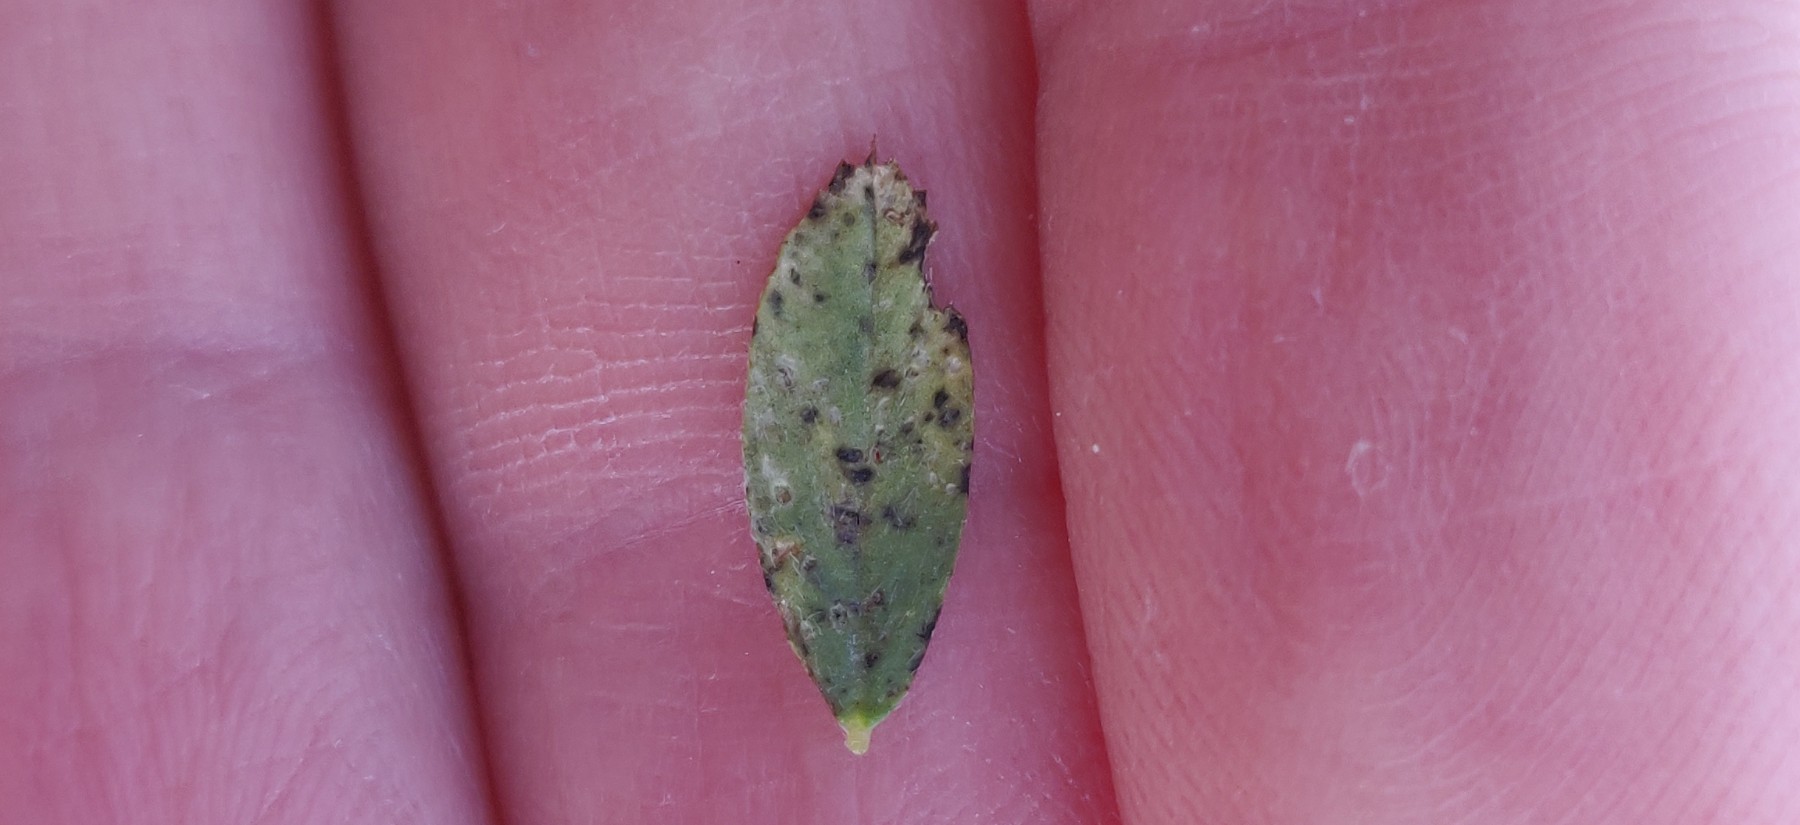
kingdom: Fungi
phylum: Ascomycota
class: Leotiomycetes
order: Helotiales
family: Drepanopezizaceae
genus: Pseudopeziza
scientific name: Pseudopeziza medicaginis
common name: sneglebælg-bladskive
